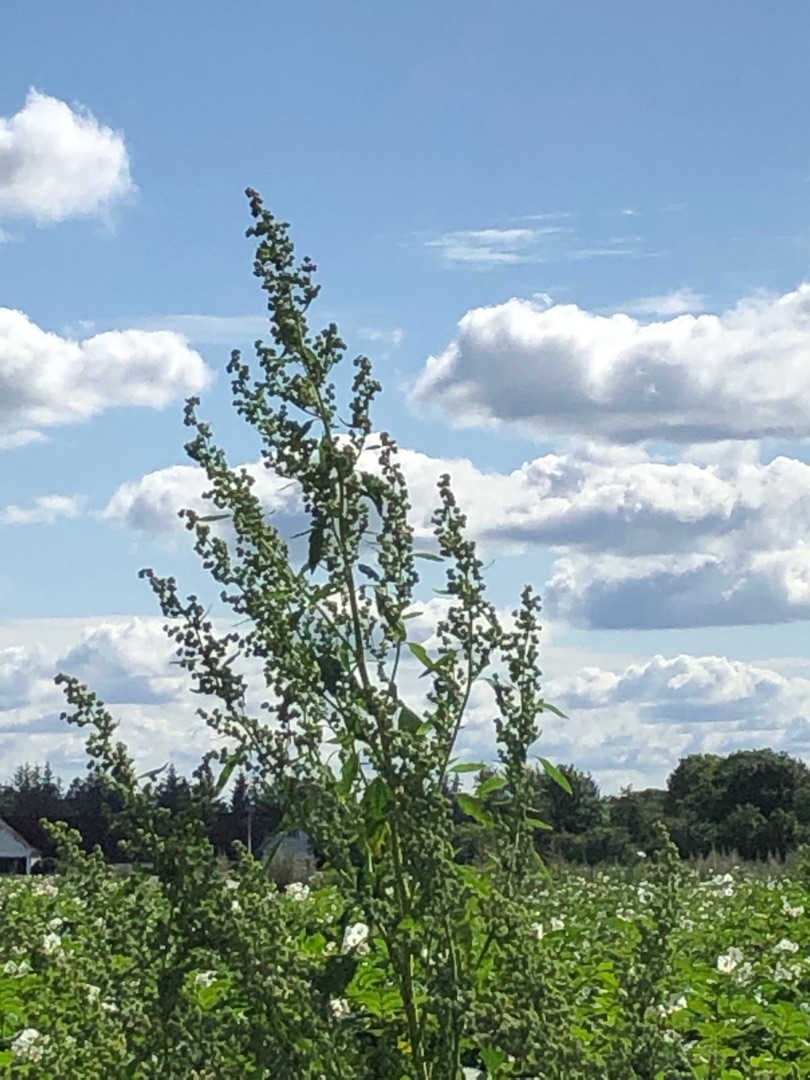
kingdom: Plantae
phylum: Tracheophyta
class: Magnoliopsida
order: Caryophyllales
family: Amaranthaceae
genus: Chenopodium
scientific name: Chenopodium album
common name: Hvidmelet gåsefod
